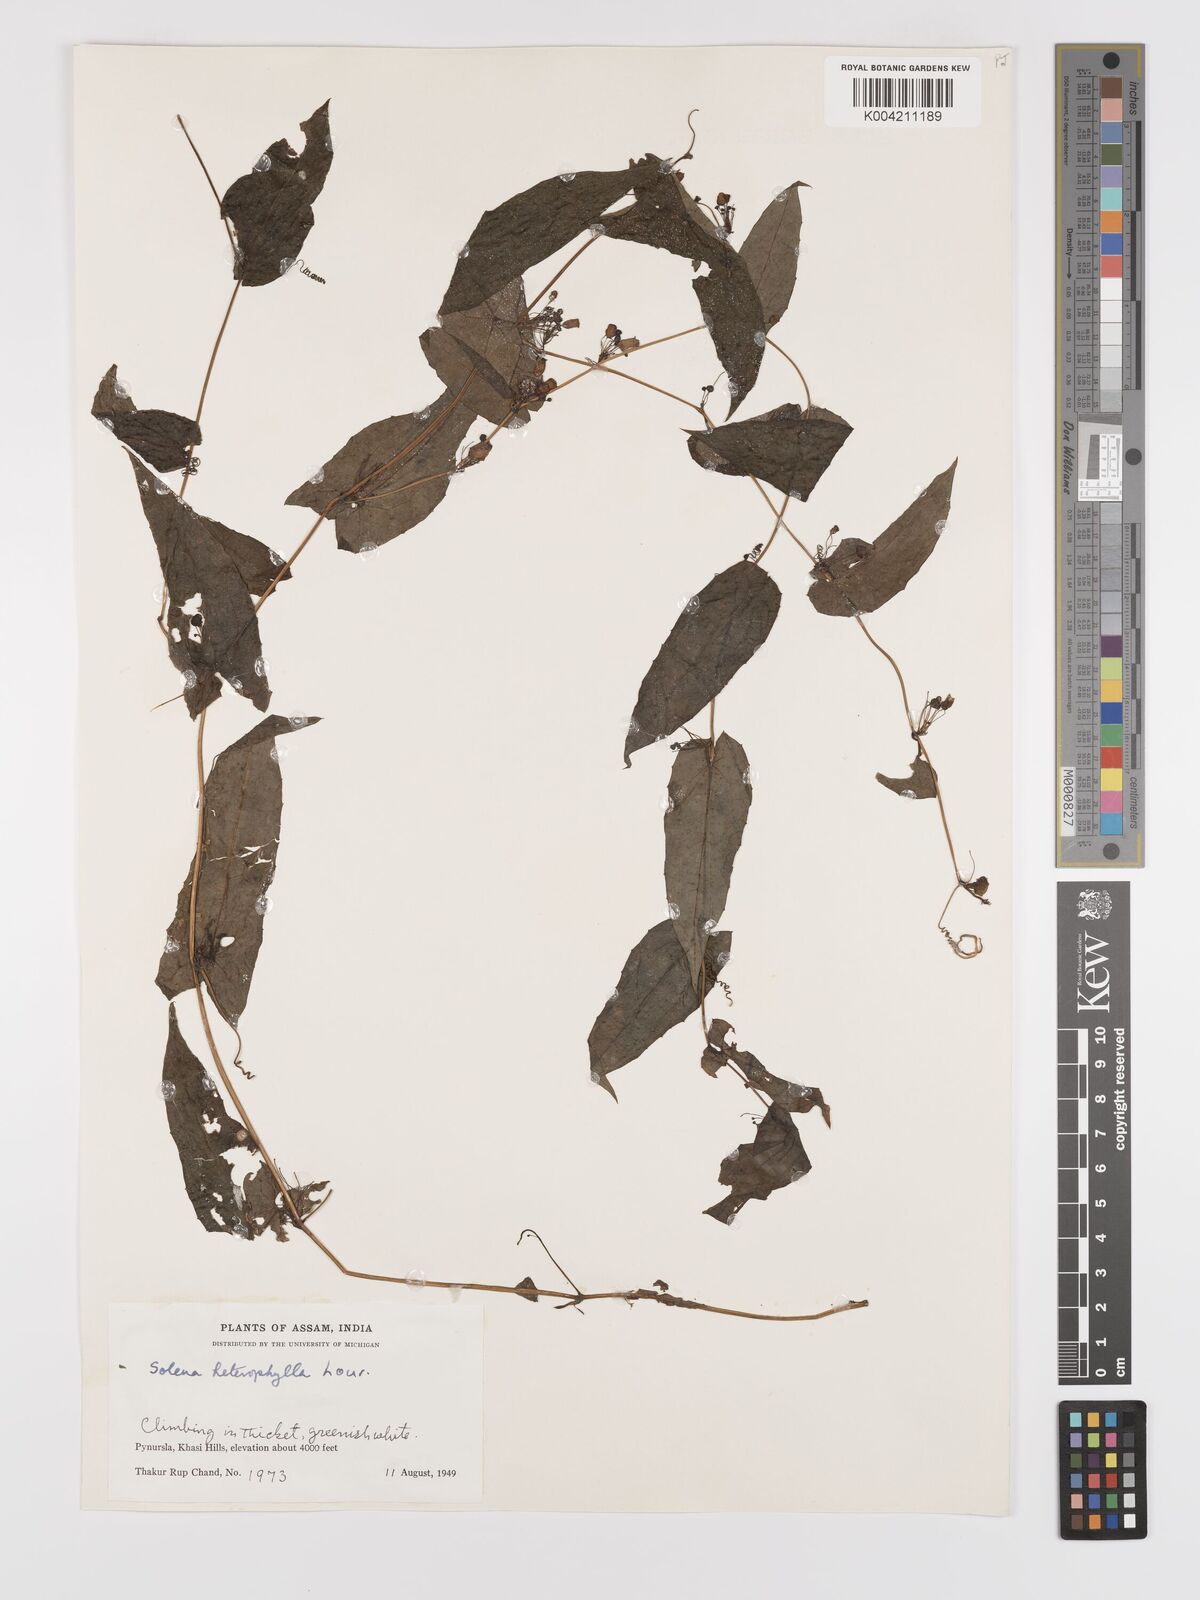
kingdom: Plantae
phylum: Tracheophyta
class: Magnoliopsida
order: Cucurbitales
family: Cucurbitaceae
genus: Solena
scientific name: Solena amplexicaulis
